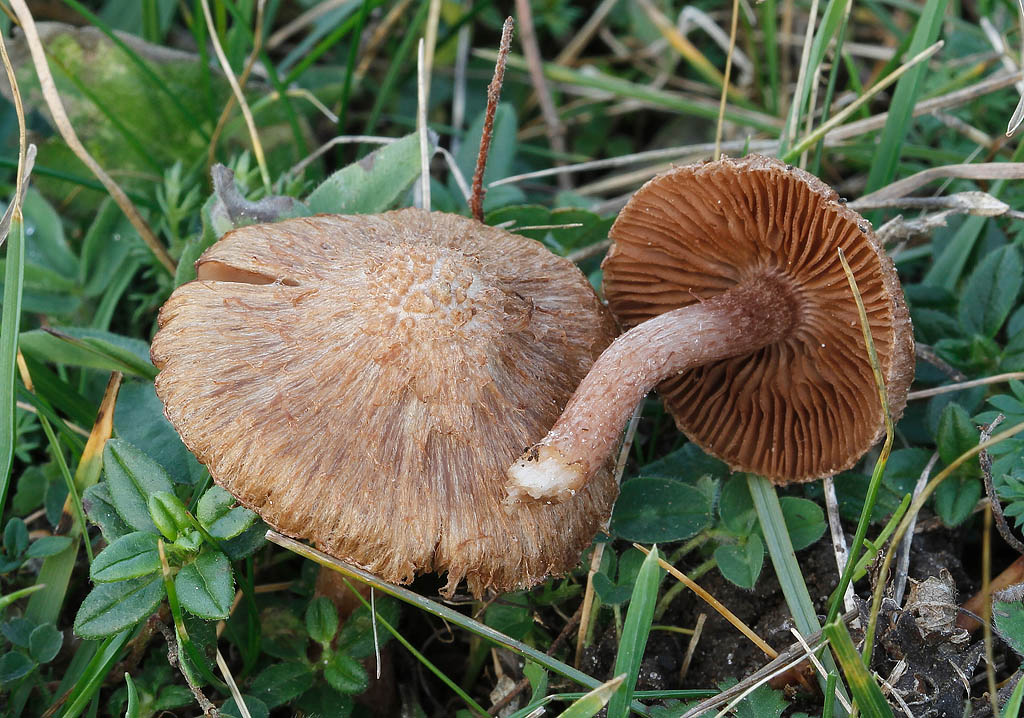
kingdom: Fungi
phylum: Basidiomycota
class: Agaricomycetes
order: Agaricales
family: Inocybaceae
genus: Inocybe
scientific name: Inocybe cincinnata
